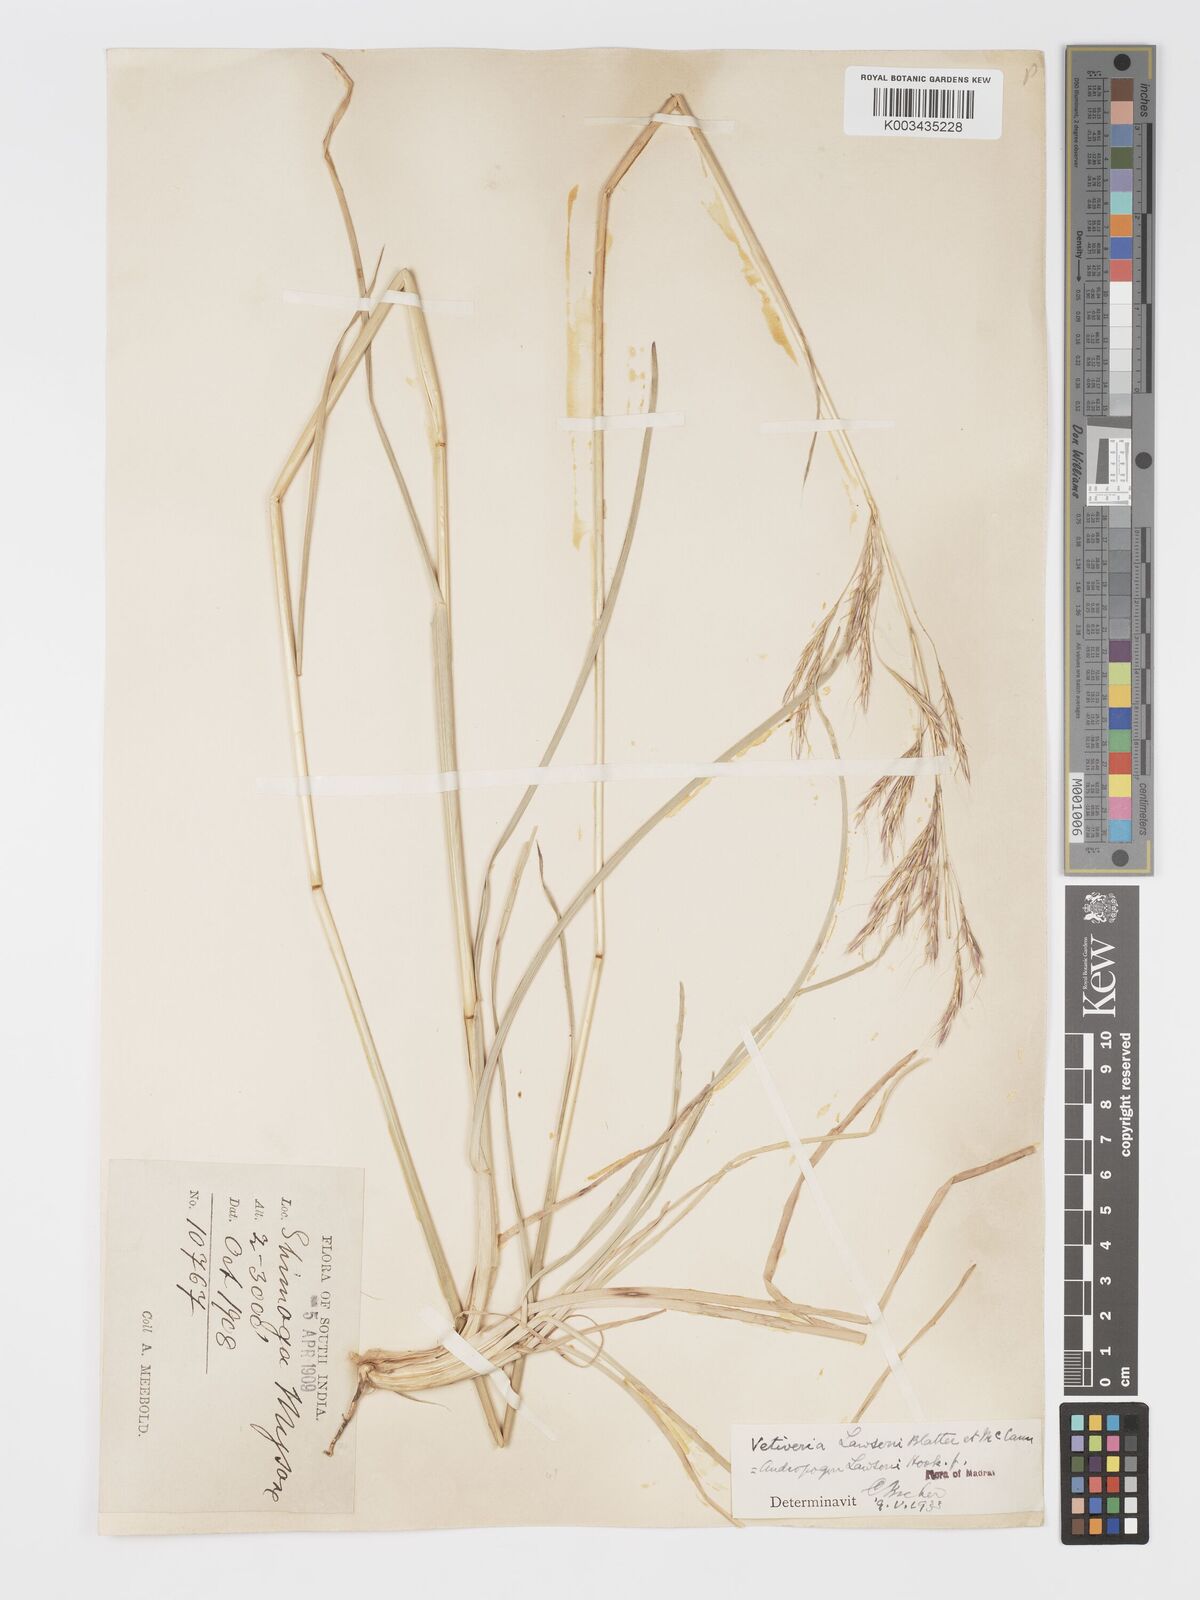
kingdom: Plantae
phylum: Tracheophyta
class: Liliopsida
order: Poales
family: Poaceae
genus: Chrysopogon
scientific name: Chrysopogon lawsonii
